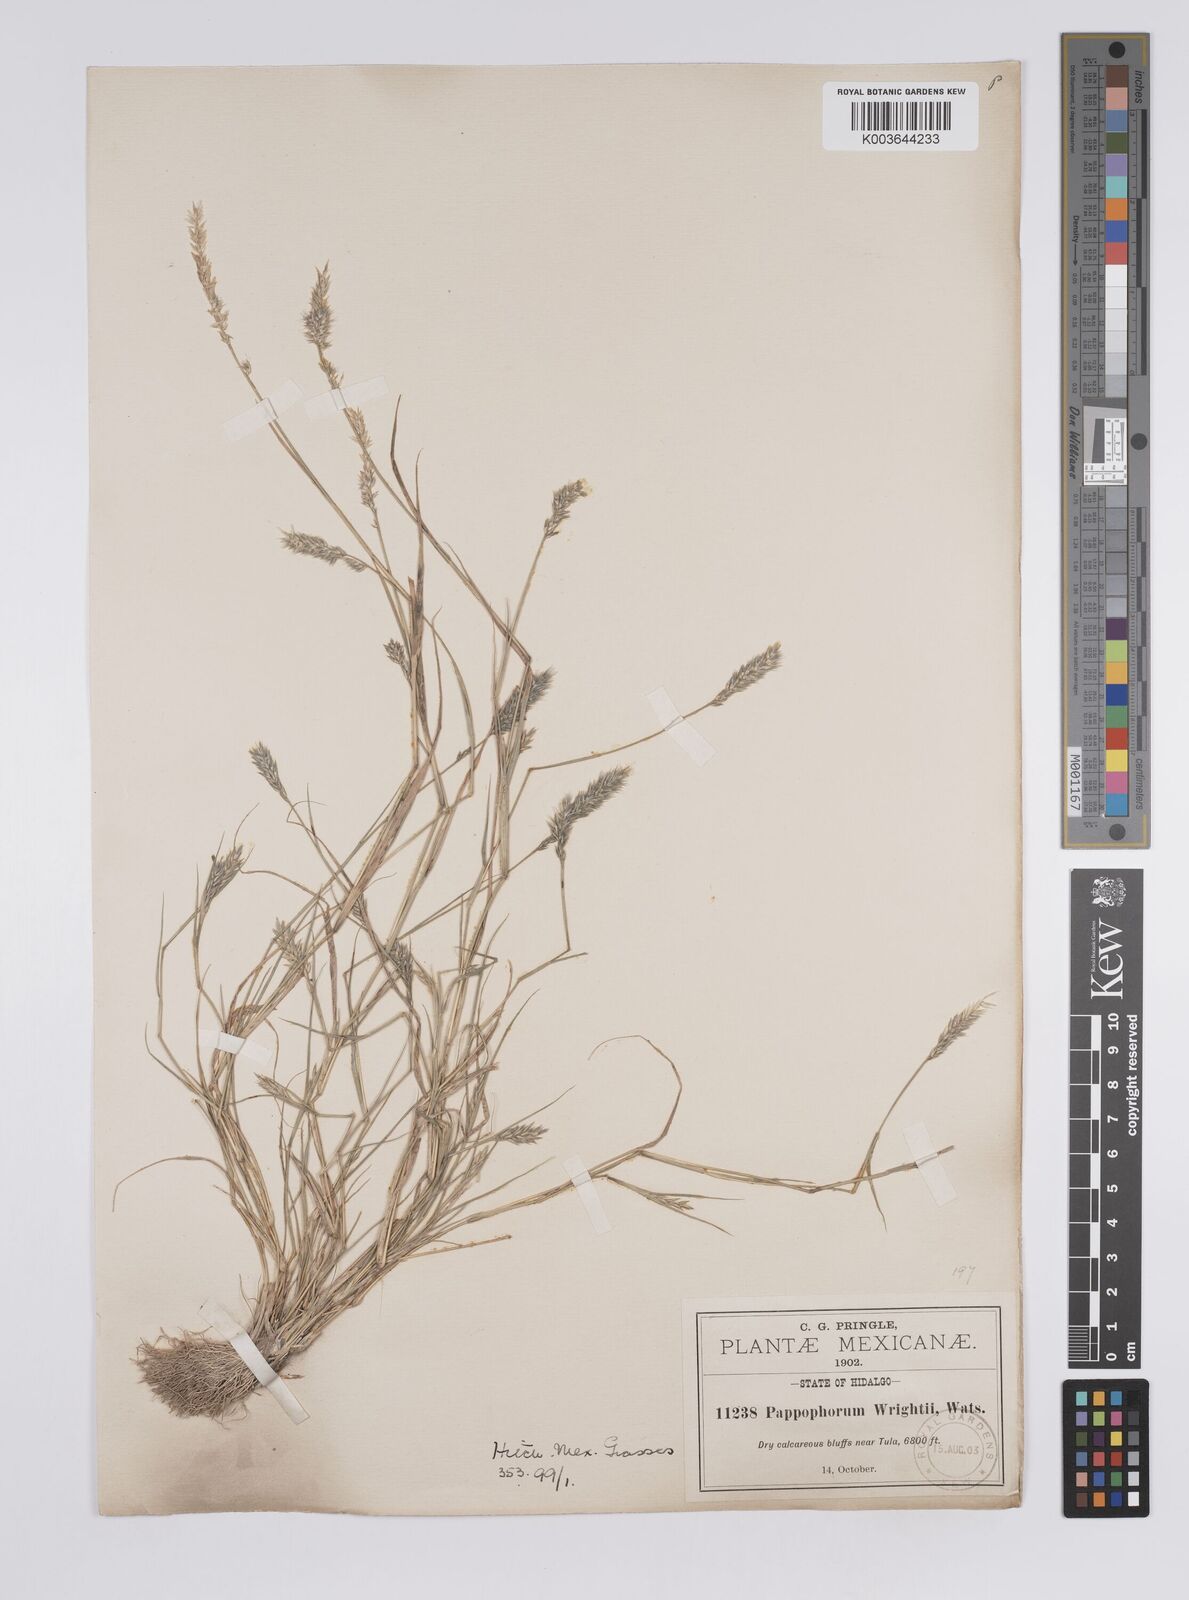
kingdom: Plantae
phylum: Tracheophyta
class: Liliopsida
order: Poales
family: Poaceae
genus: Enneapogon
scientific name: Enneapogon desvauxii
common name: Feather pappus grass
